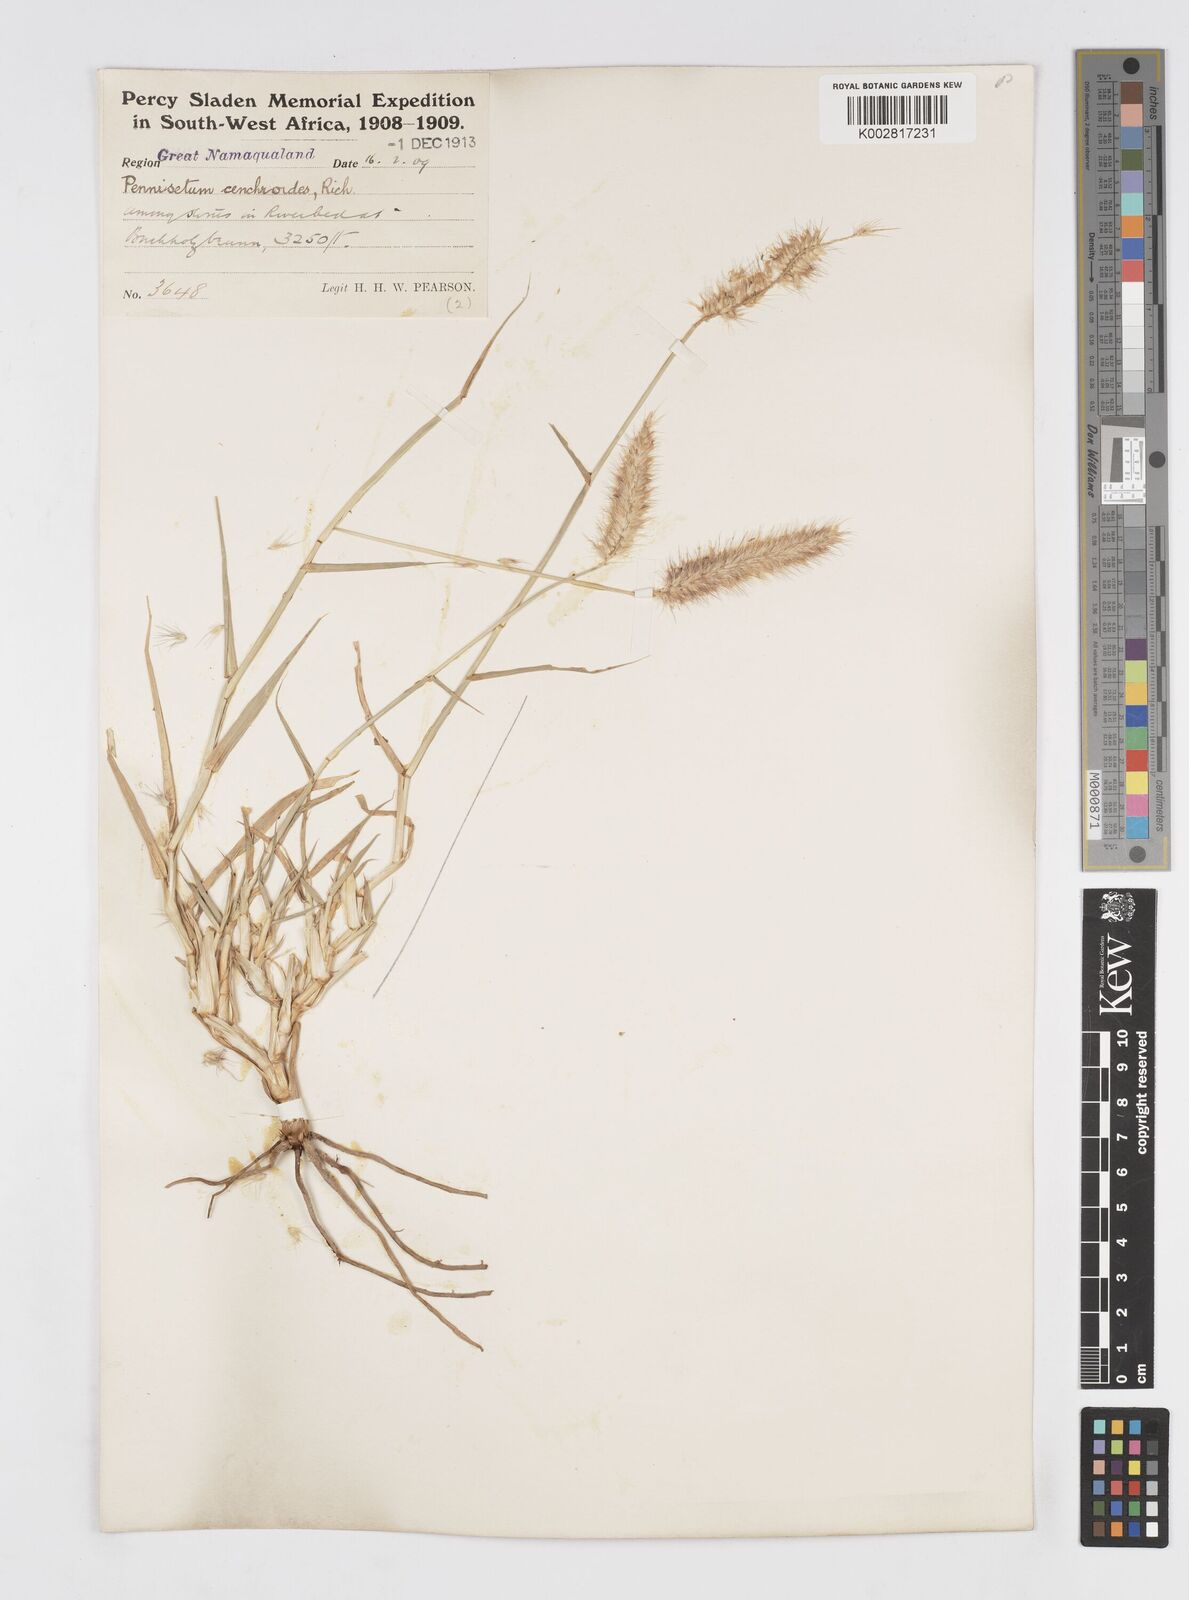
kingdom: Plantae
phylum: Tracheophyta
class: Liliopsida
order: Poales
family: Poaceae
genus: Cenchrus
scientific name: Cenchrus ciliaris
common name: Buffelgrass
